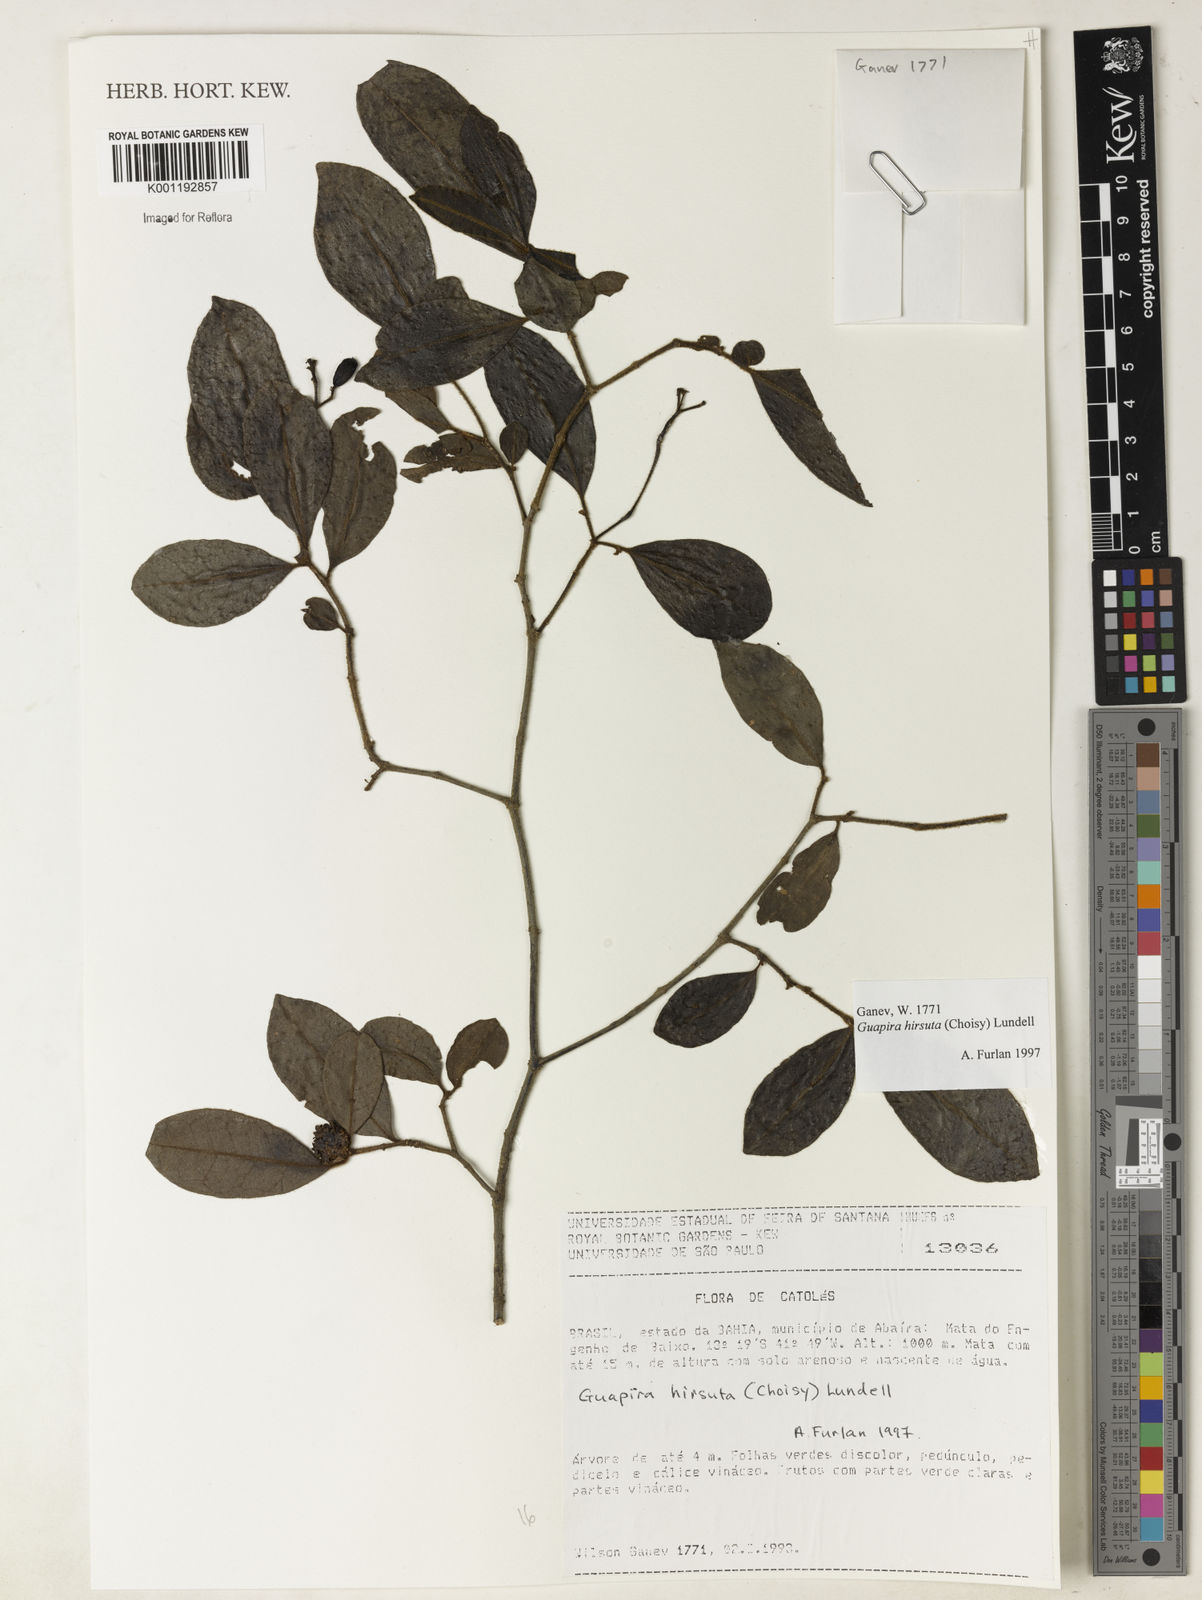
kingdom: Plantae
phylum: Tracheophyta
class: Magnoliopsida
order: Caryophyllales
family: Nyctaginaceae
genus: Guapira
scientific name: Guapira hirsuta
